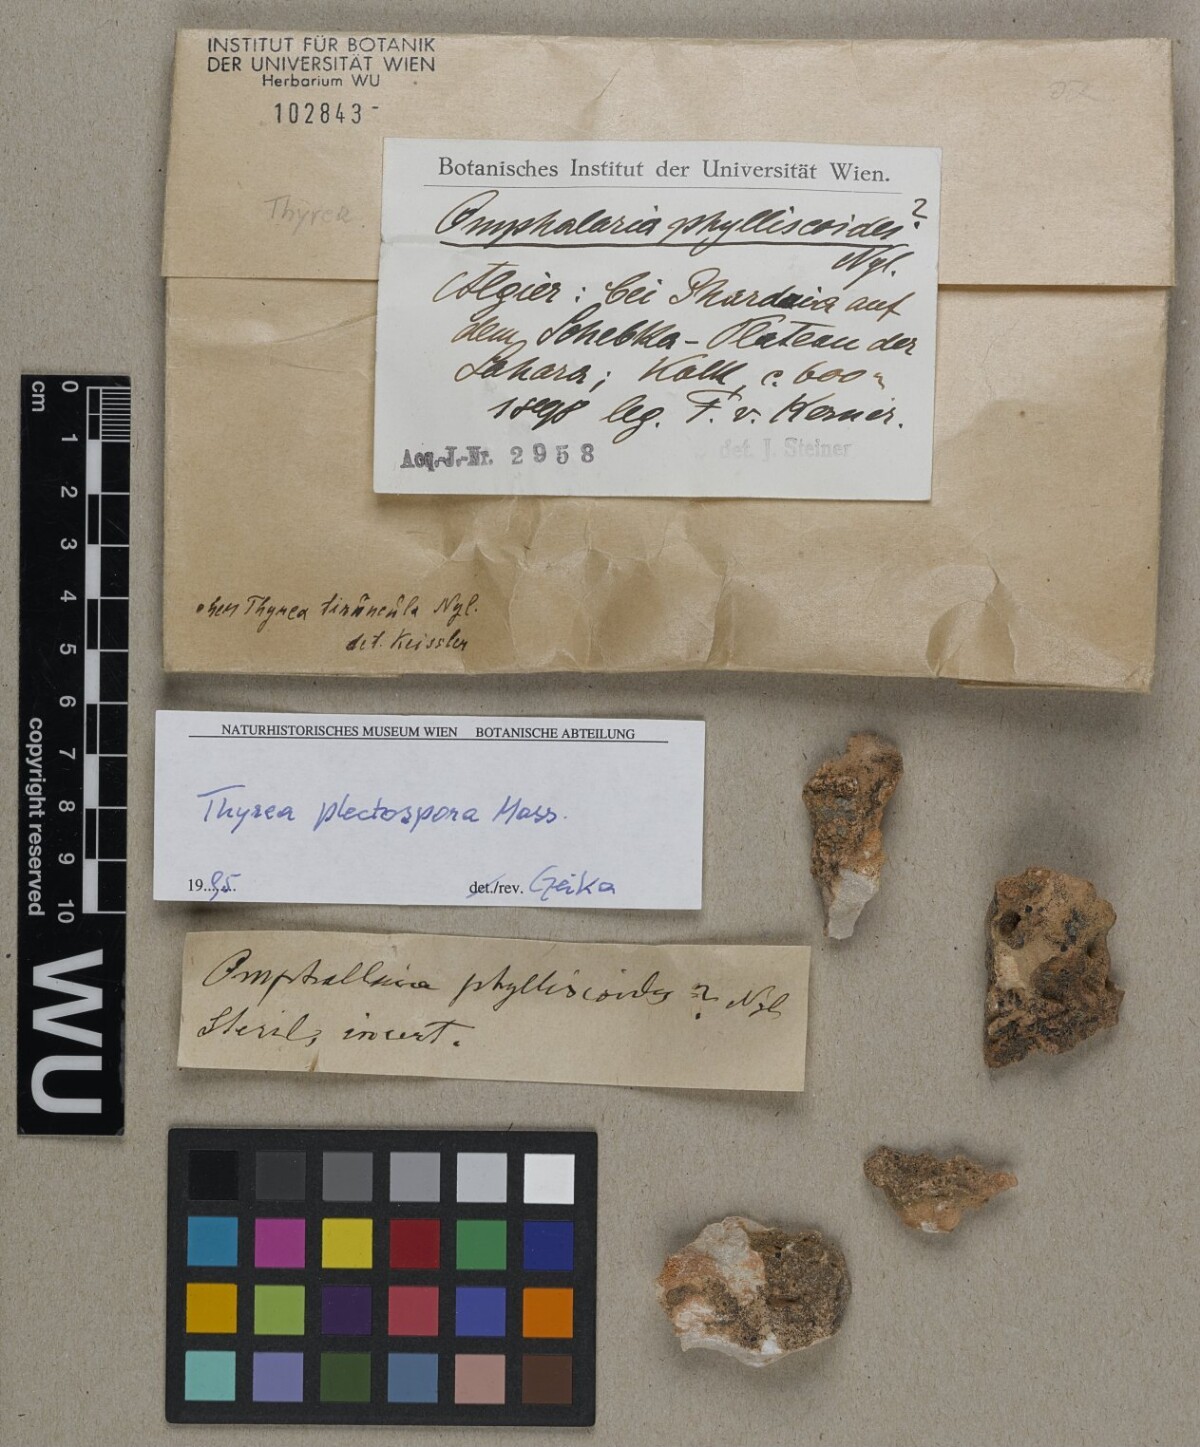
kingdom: Fungi
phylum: Ascomycota
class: Lichinomycetes
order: Lichinales
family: Lichinaceae
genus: Thyrea
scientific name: Thyrea plectospora
